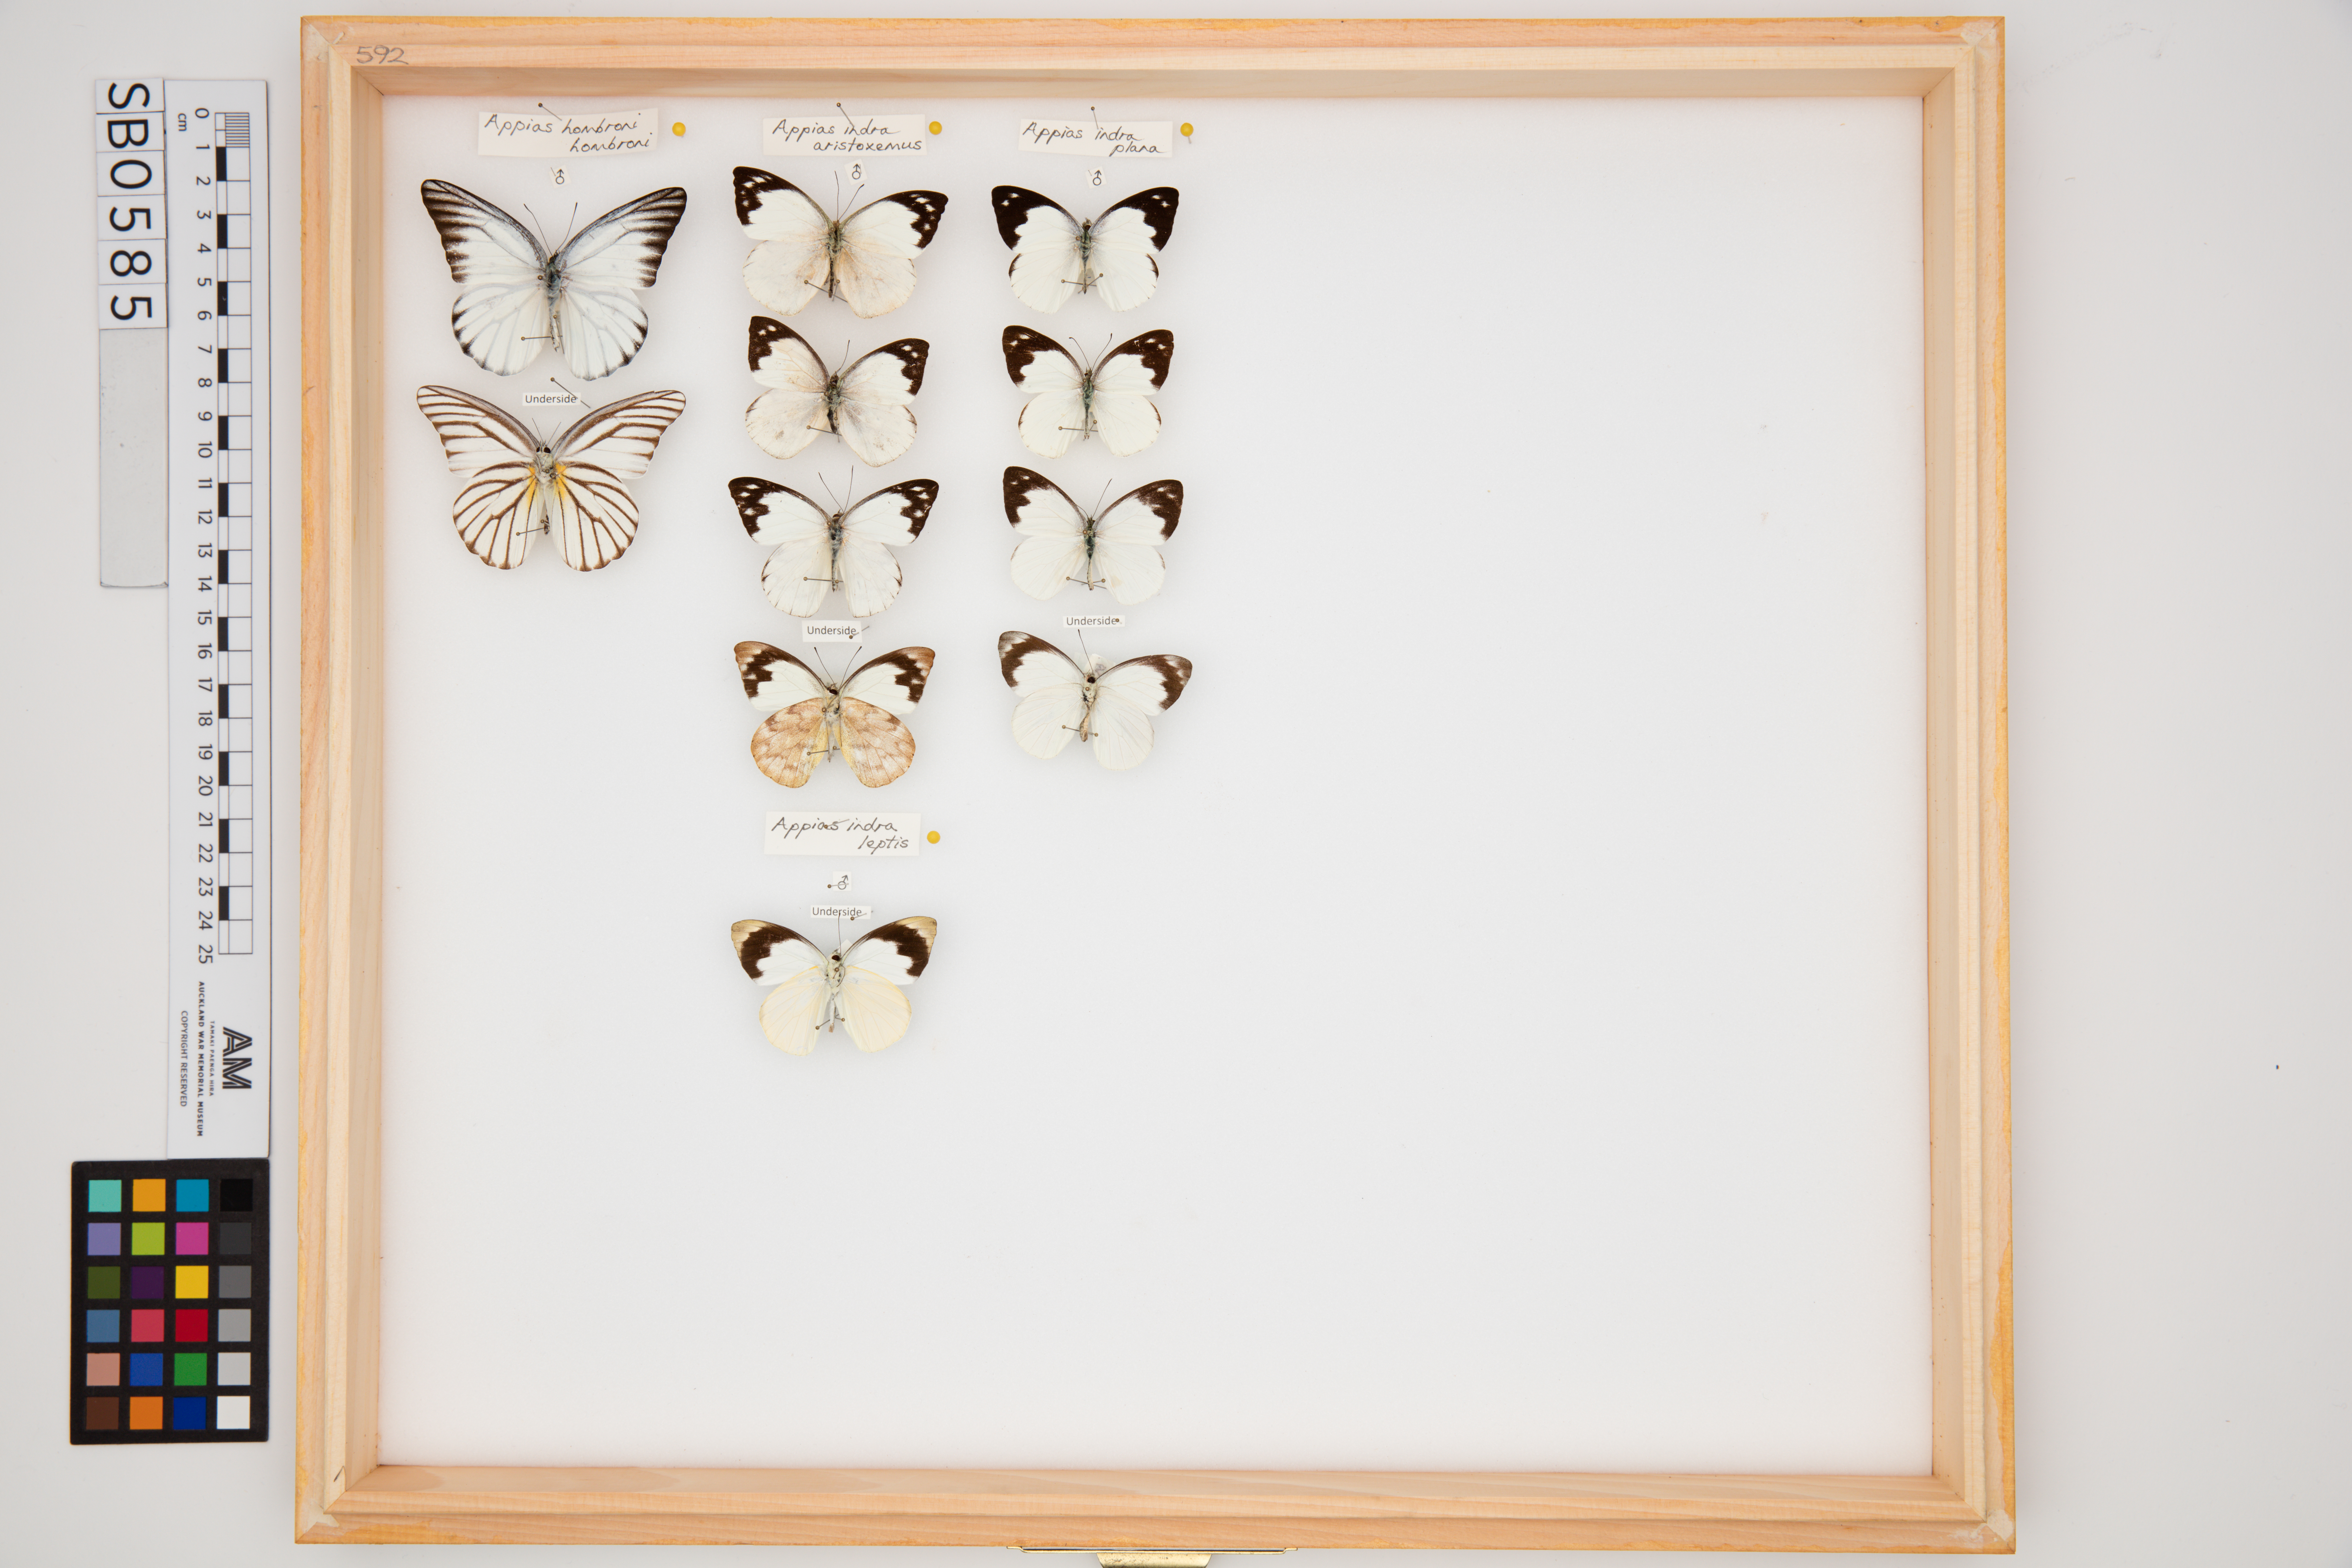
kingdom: Animalia
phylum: Arthropoda
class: Insecta
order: Lepidoptera
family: Pieridae
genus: Appias
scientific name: Appias hombroni
